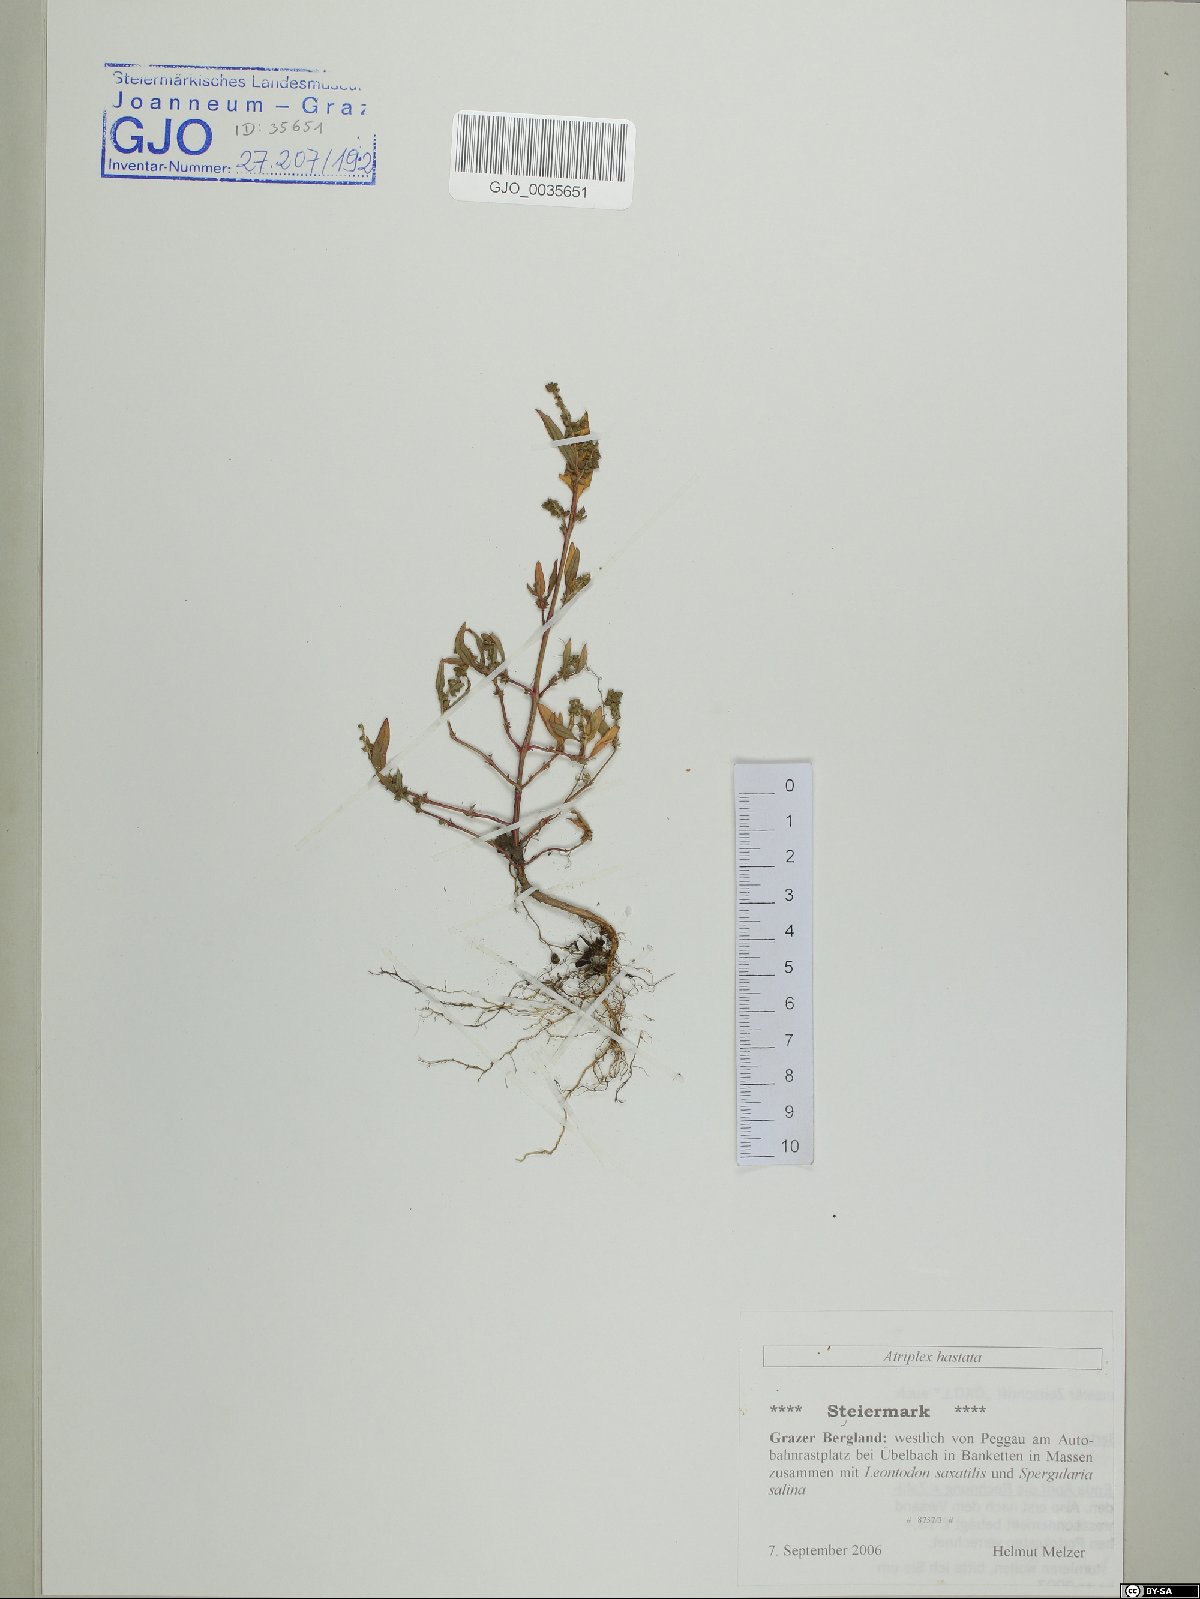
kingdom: Plantae
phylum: Tracheophyta
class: Magnoliopsida
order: Caryophyllales
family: Amaranthaceae
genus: Atriplex
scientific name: Atriplex calotheca
